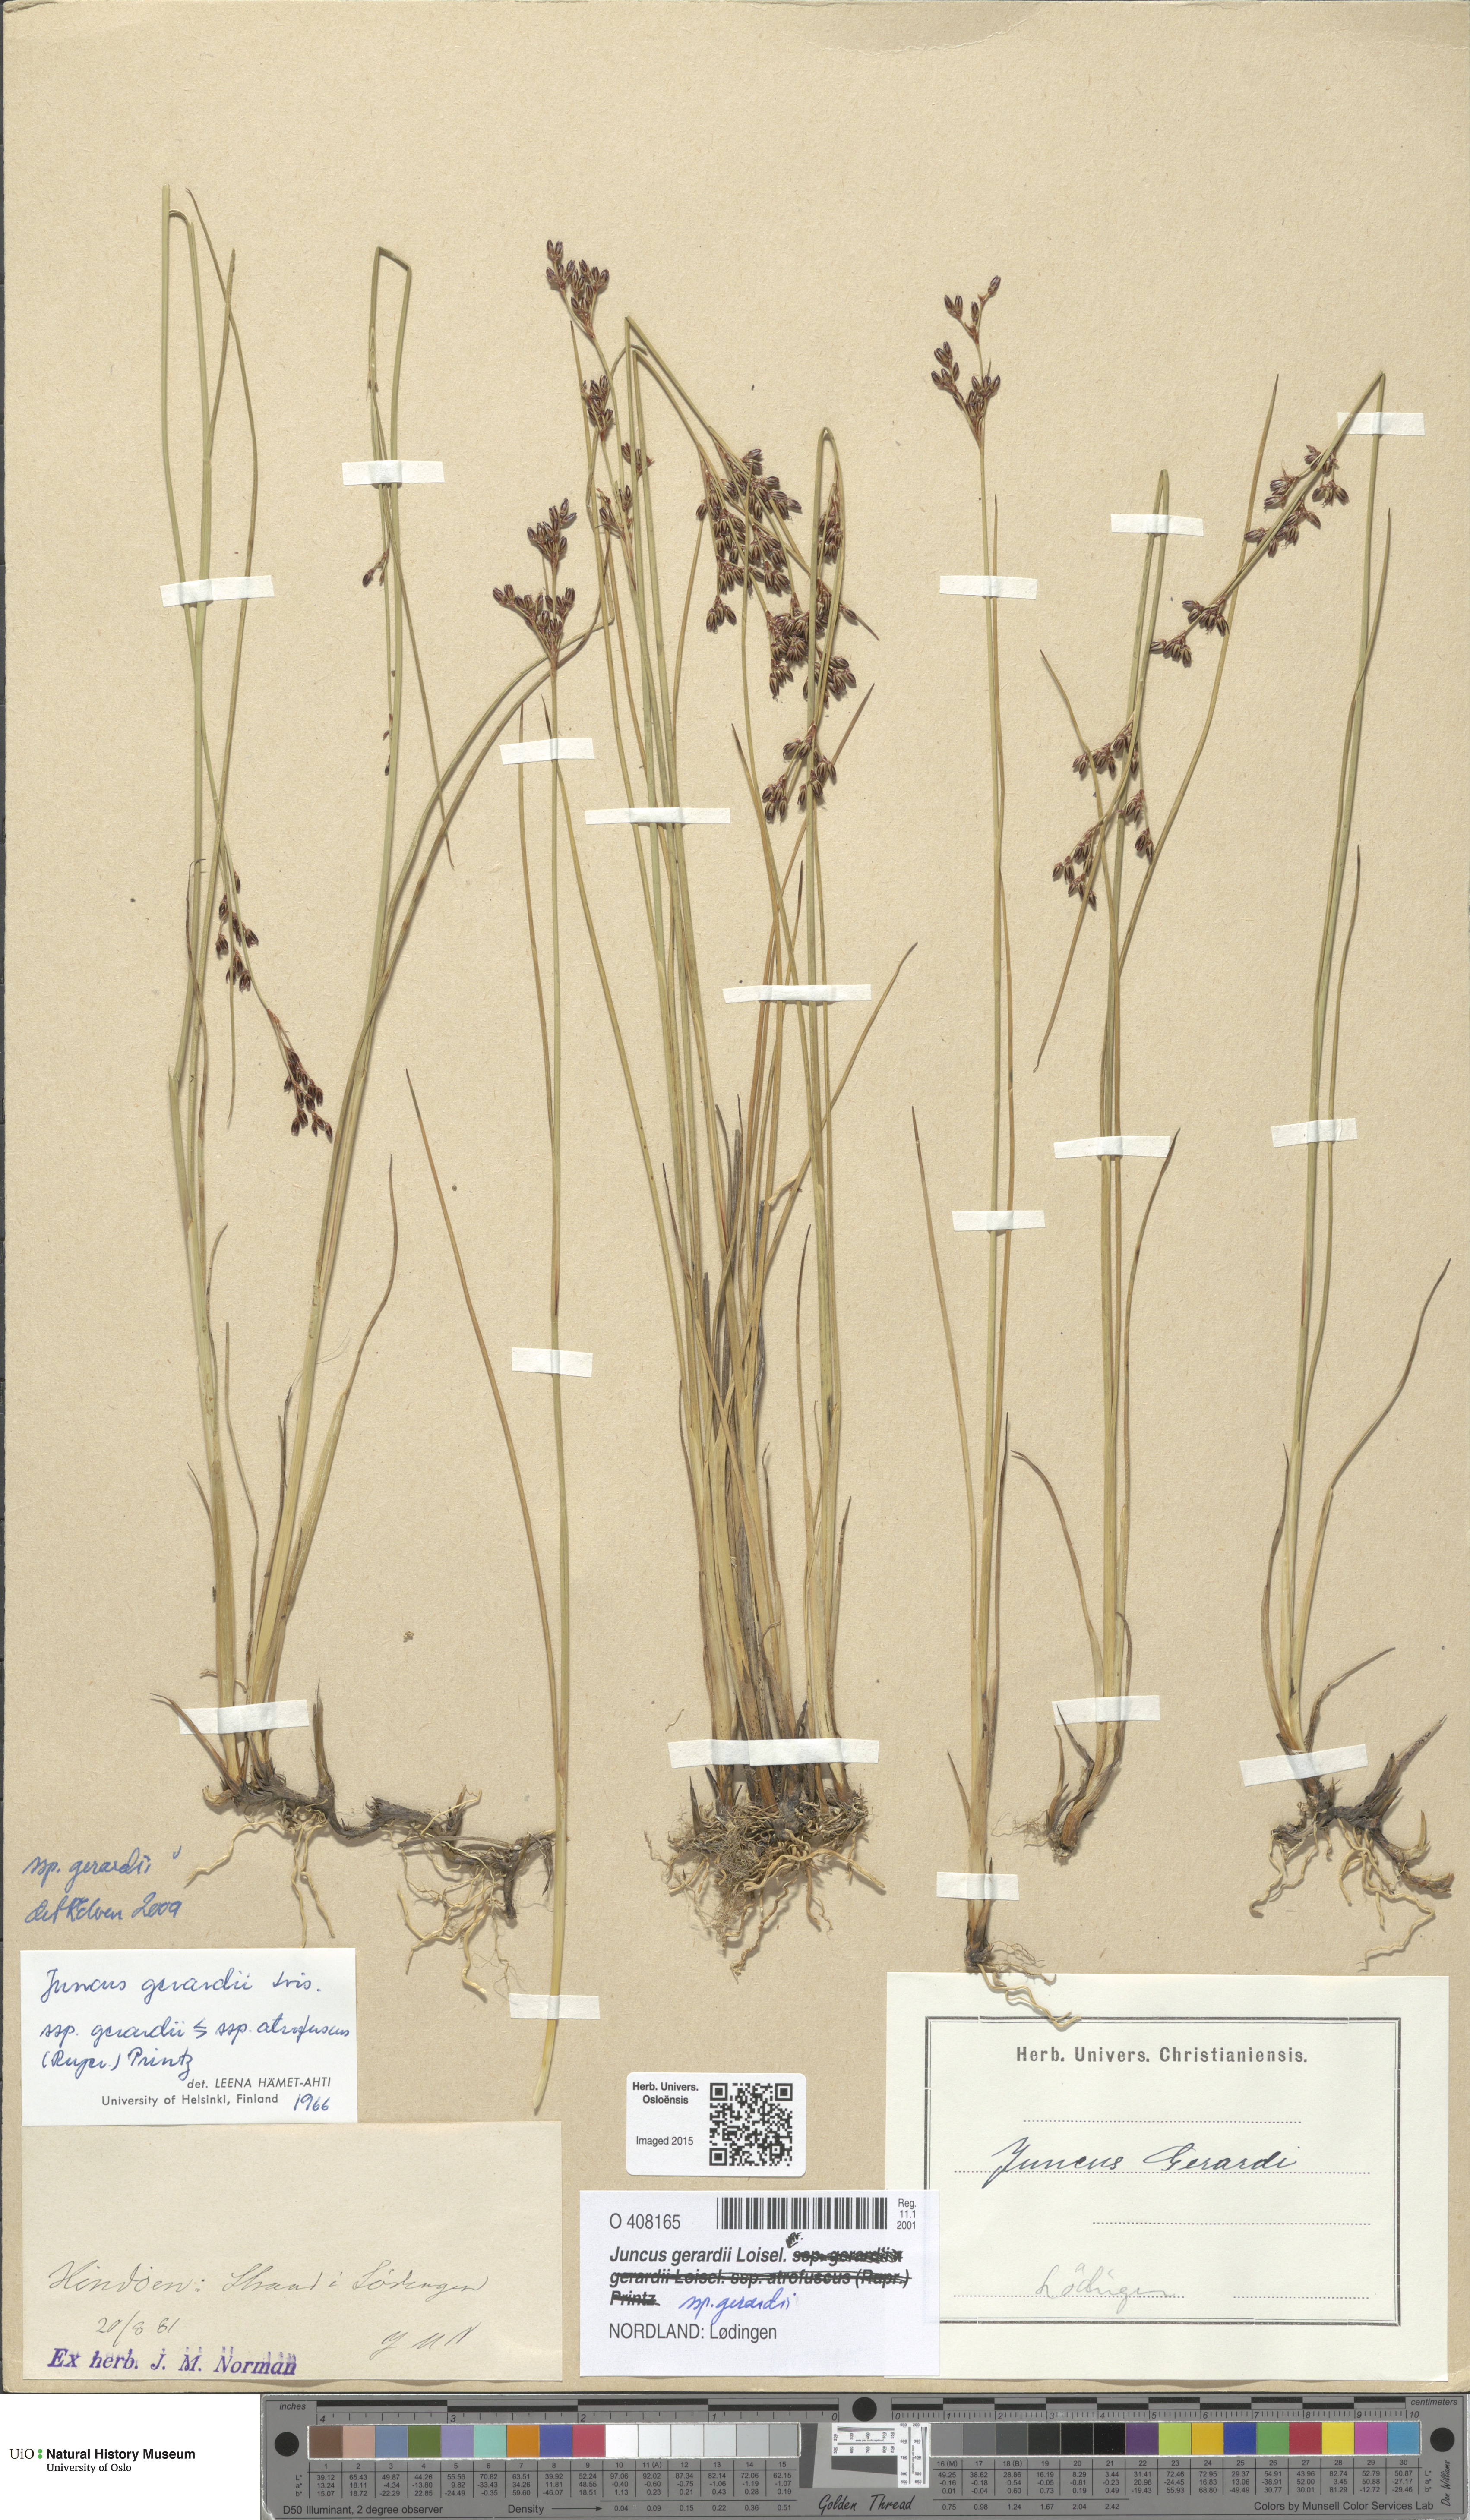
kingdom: Plantae
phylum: Tracheophyta
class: Liliopsida
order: Poales
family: Juncaceae
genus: Juncus
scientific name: Juncus gerardi
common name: Saltmarsh rush
